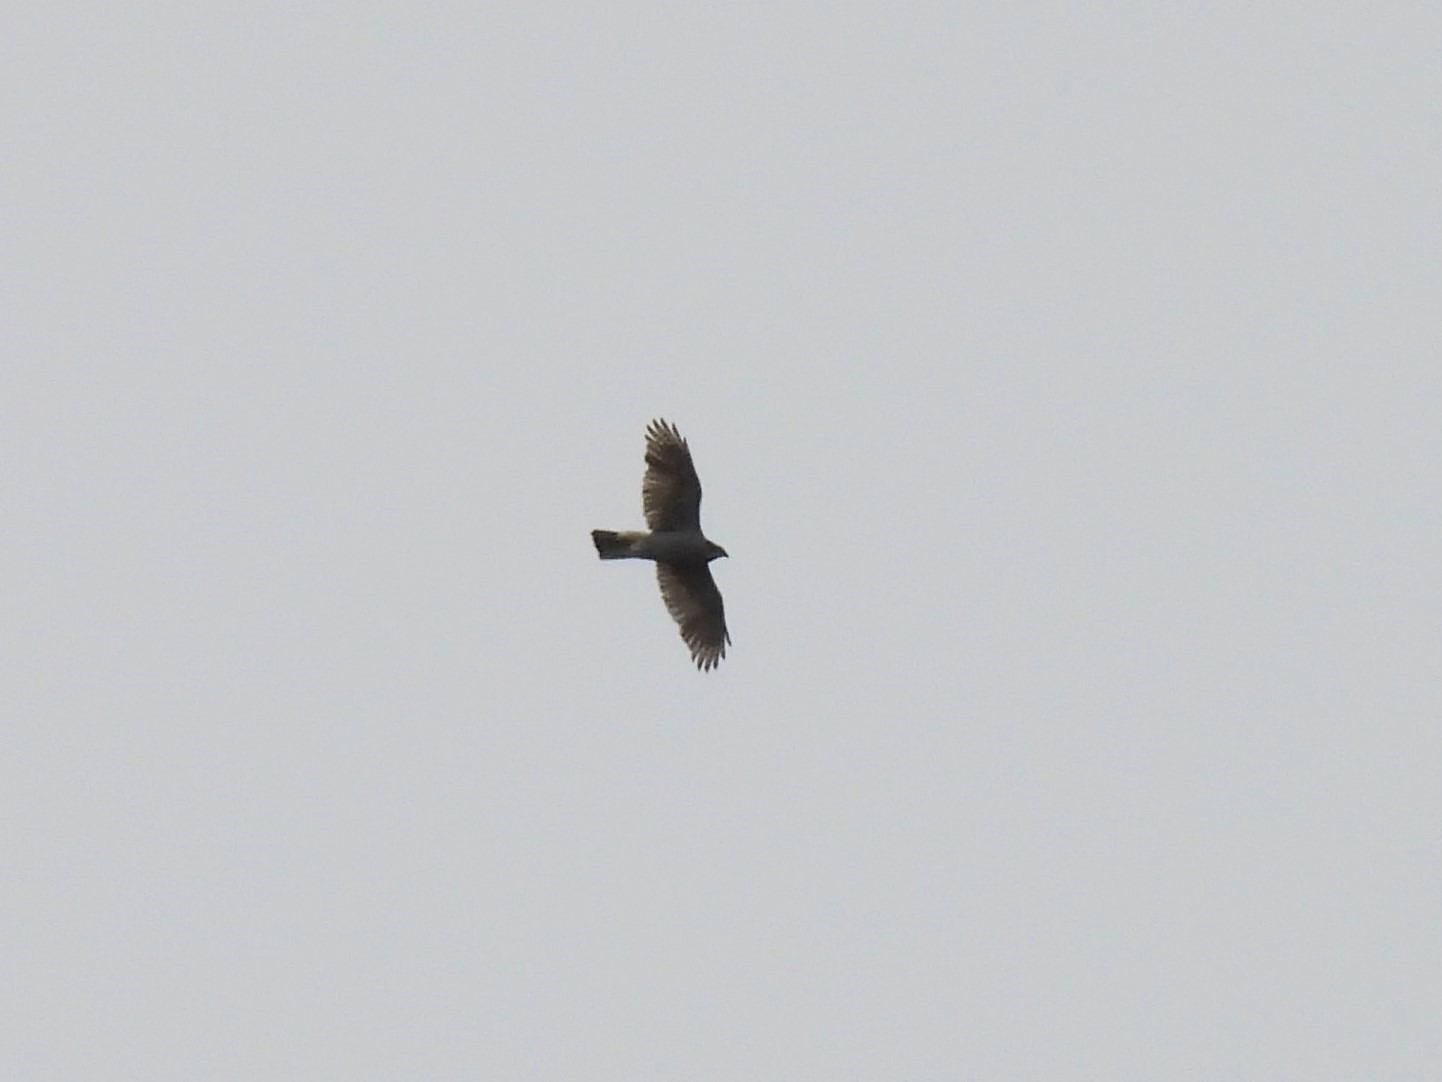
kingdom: Animalia
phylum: Chordata
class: Aves
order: Accipitriformes
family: Accipitridae
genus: Accipiter
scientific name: Accipiter gentilis
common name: Duehøg
